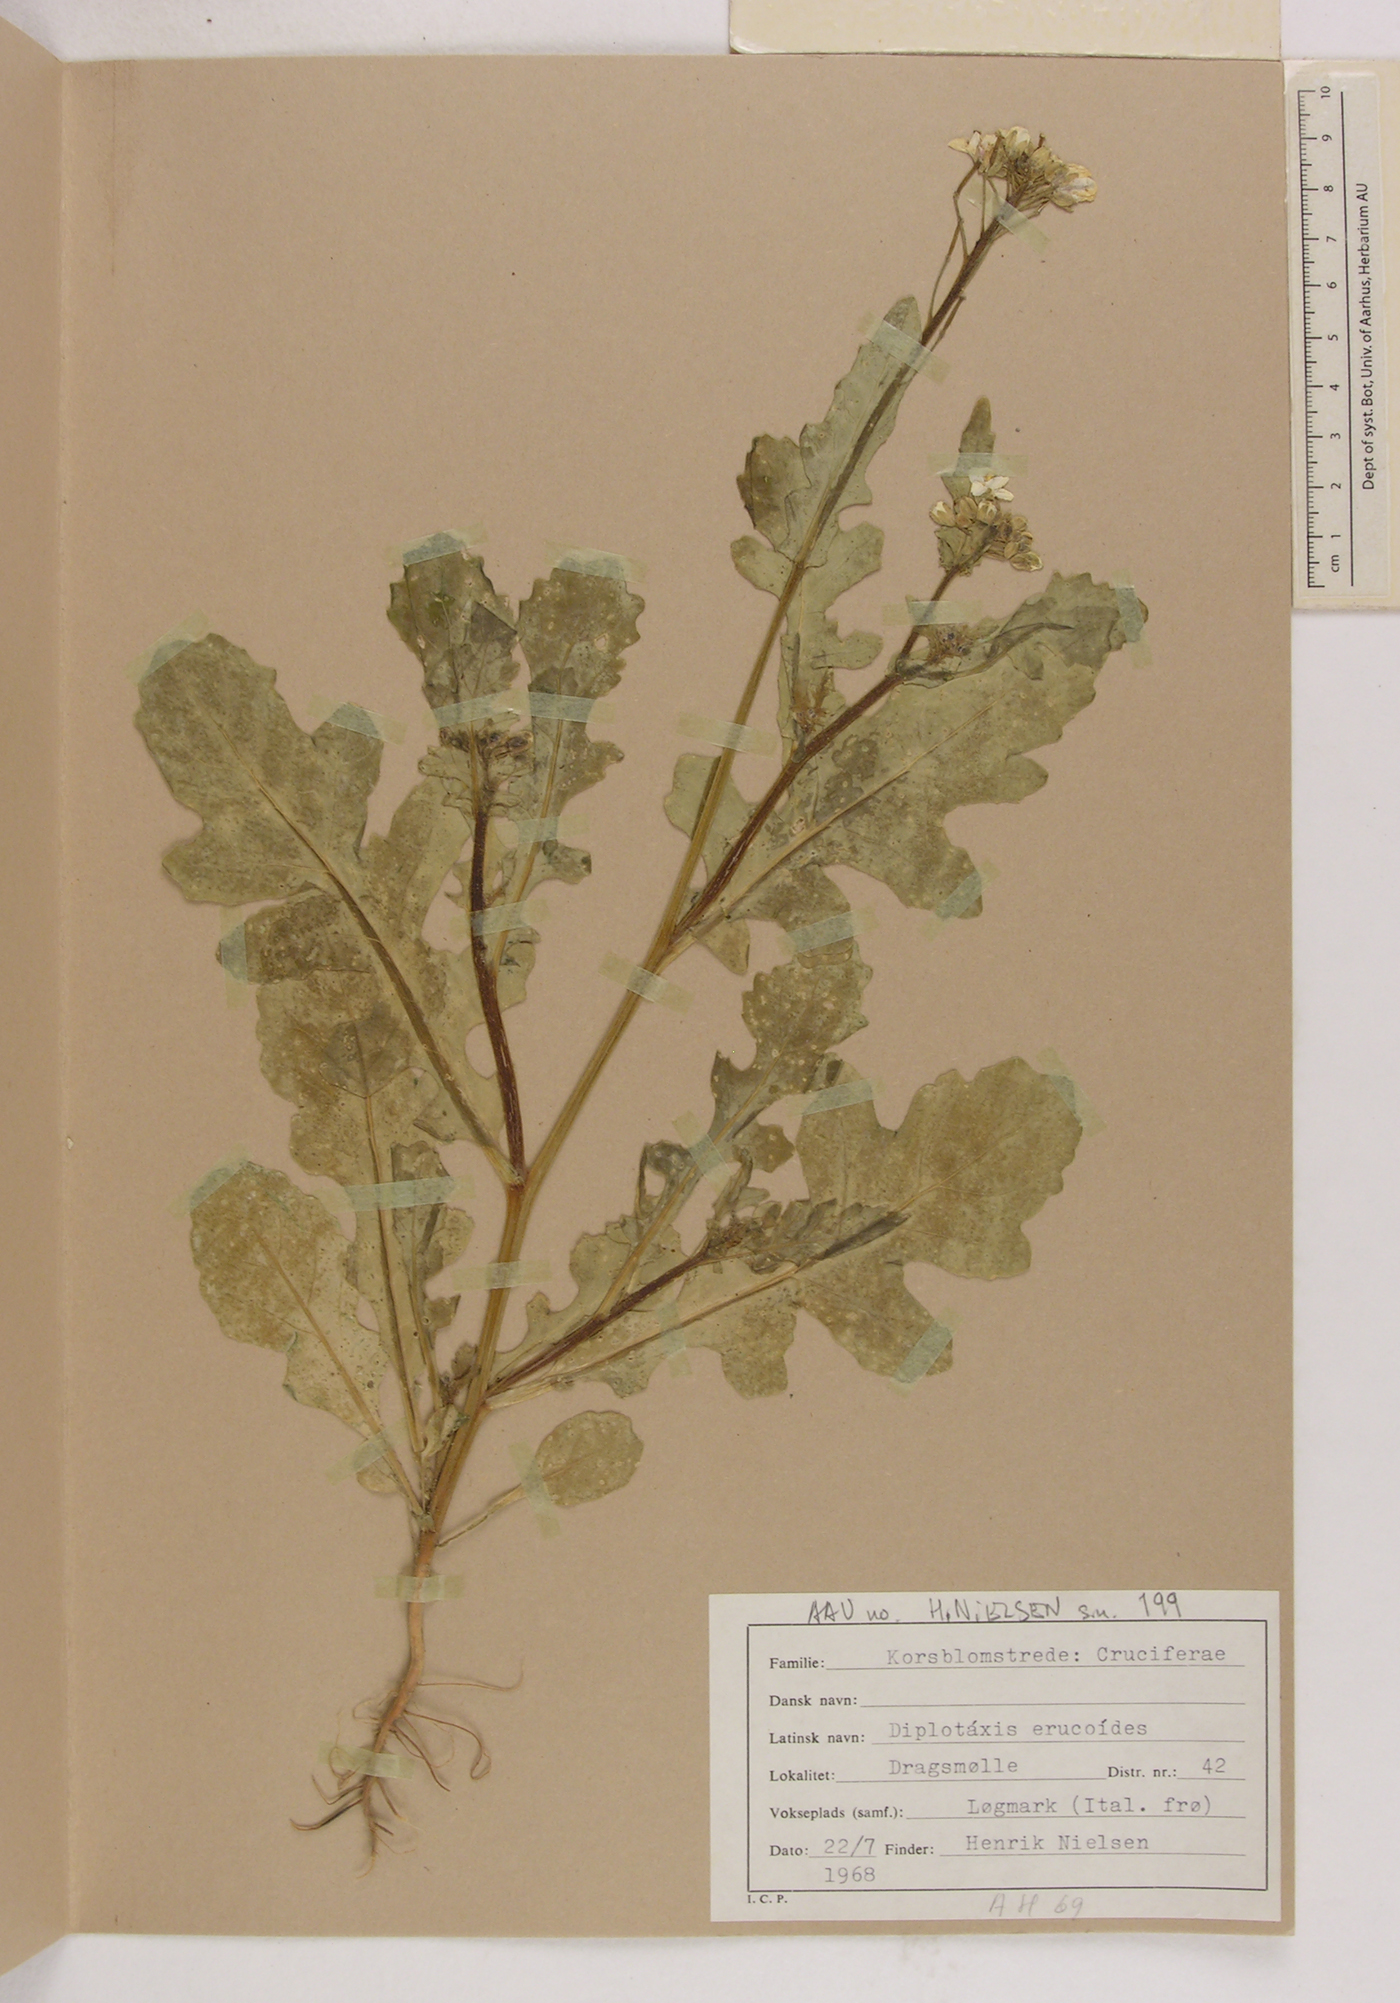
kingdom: Plantae
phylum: Tracheophyta
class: Magnoliopsida
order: Brassicales
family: Brassicaceae
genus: Diplotaxis
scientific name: Diplotaxis erucoides
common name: White rocket
